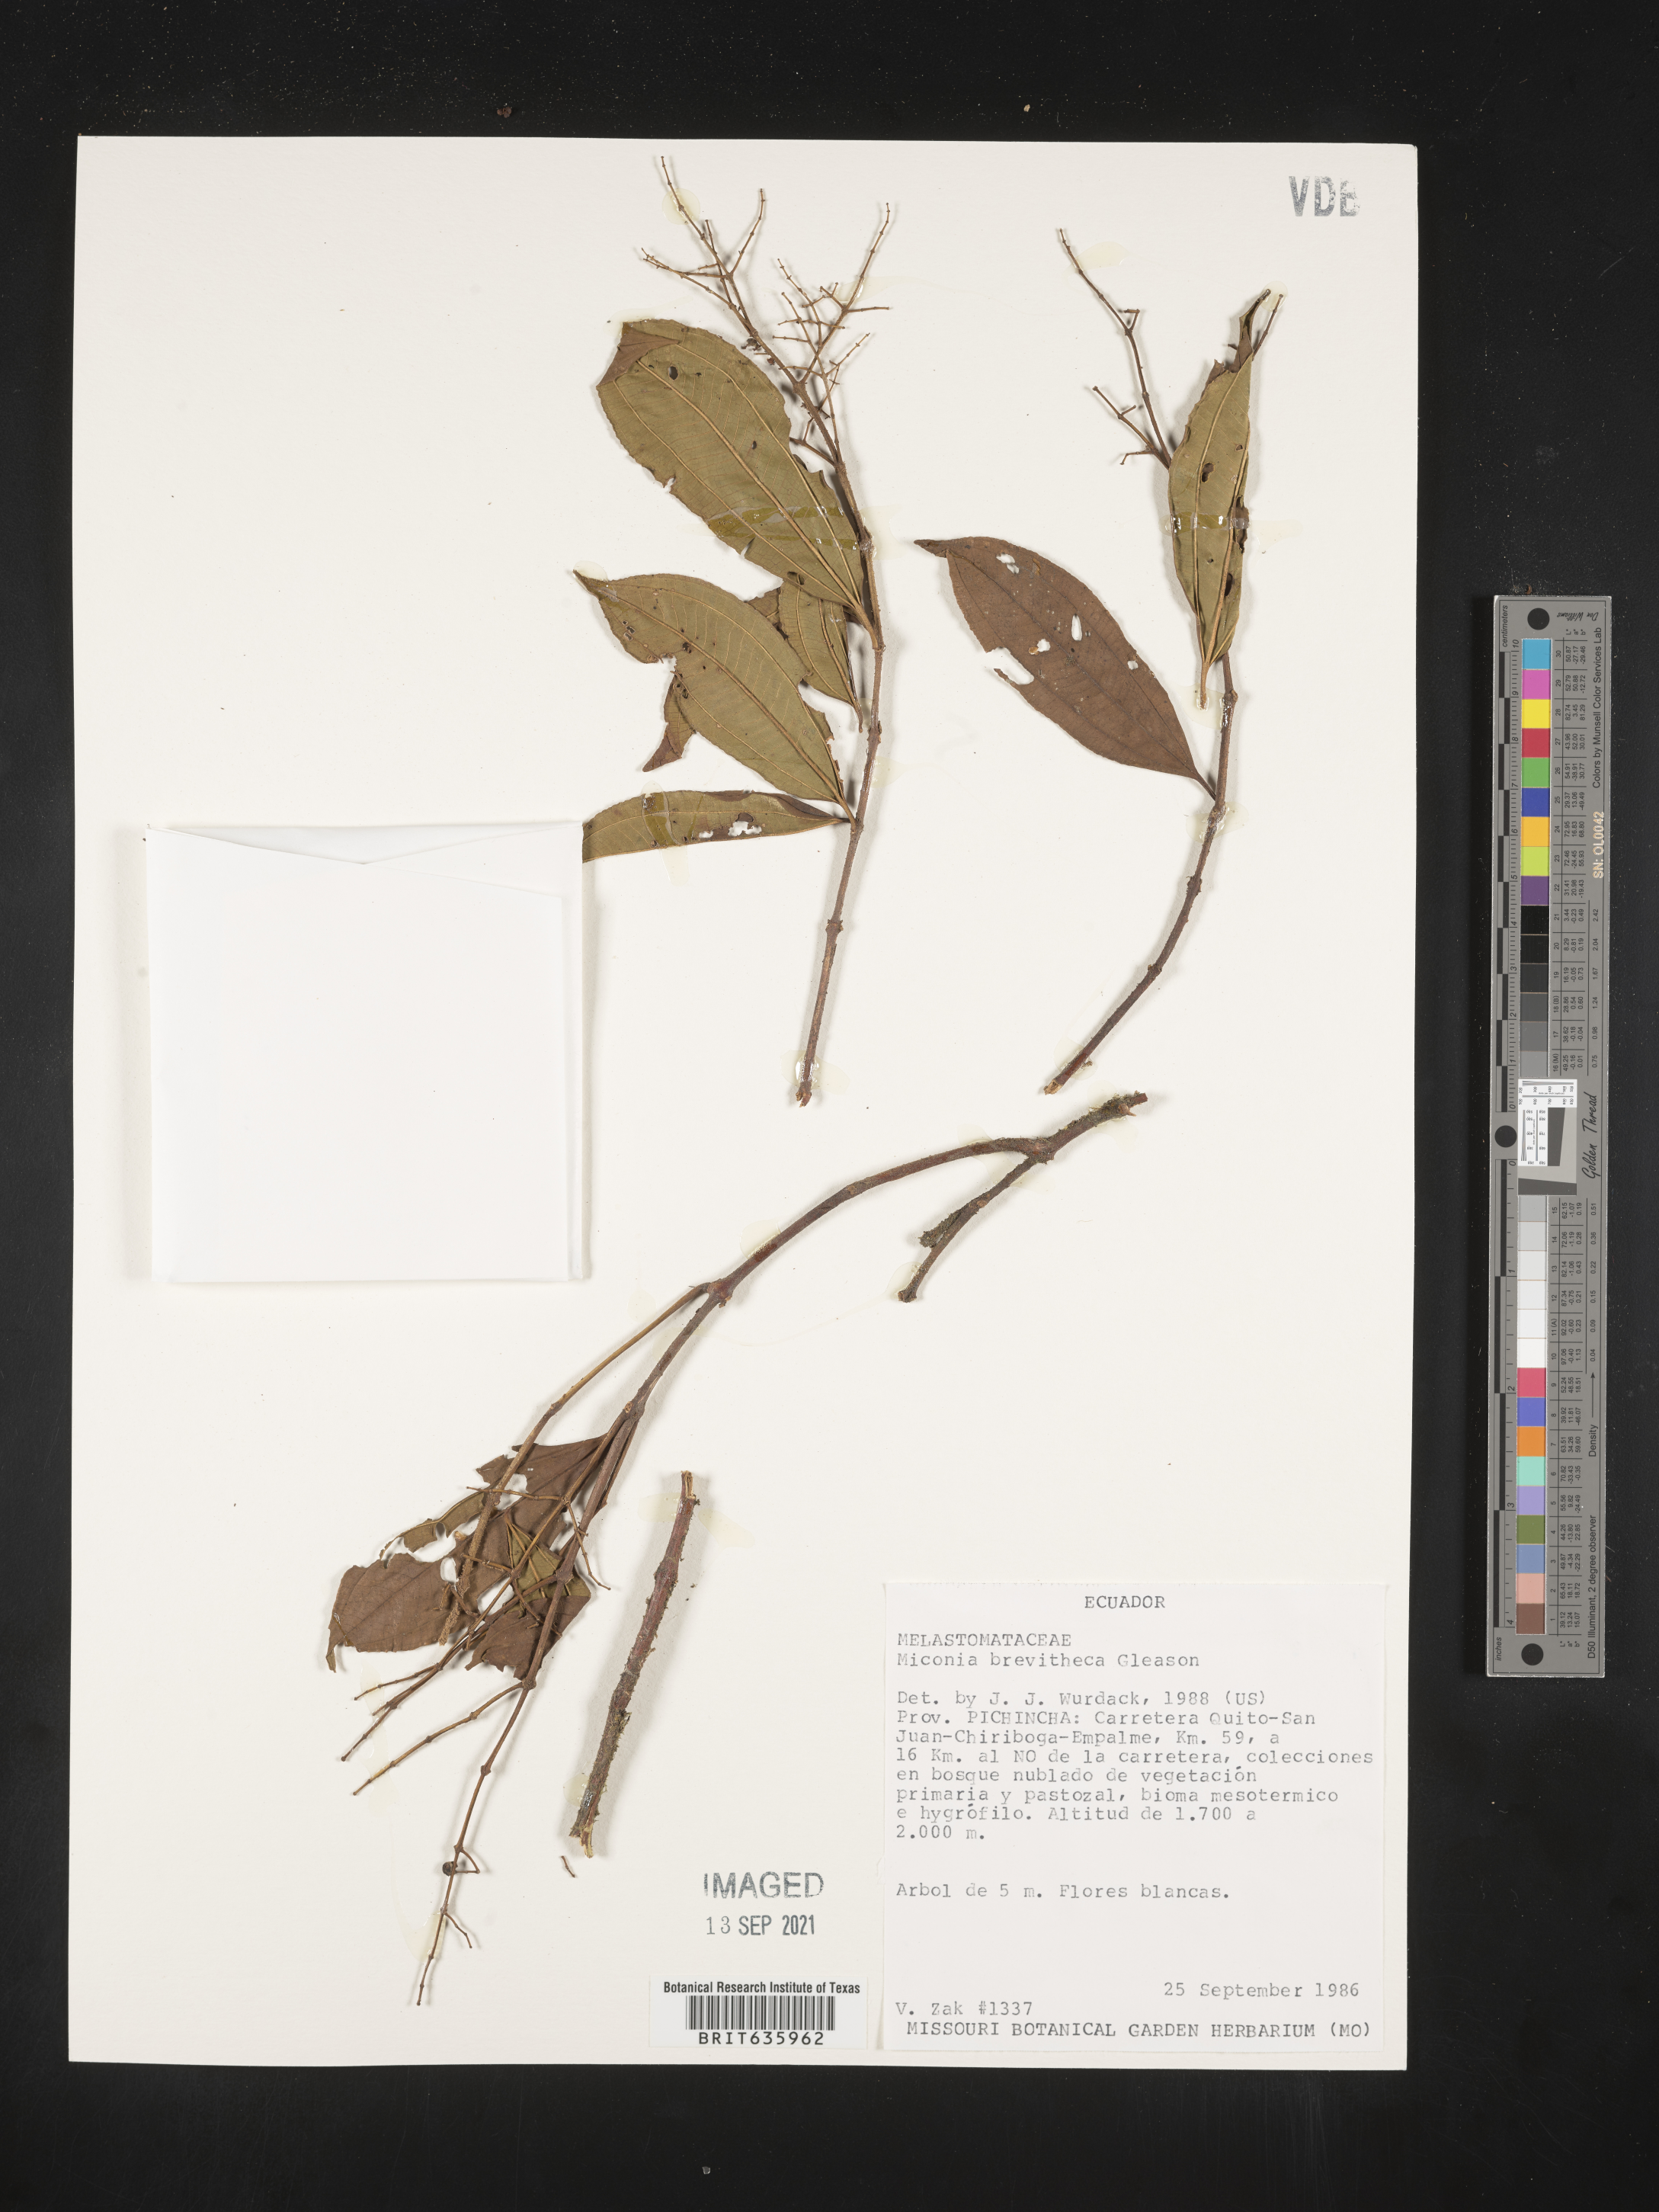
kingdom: Plantae
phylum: Tracheophyta
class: Magnoliopsida
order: Myrtales
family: Melastomataceae
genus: Miconia
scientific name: Miconia
